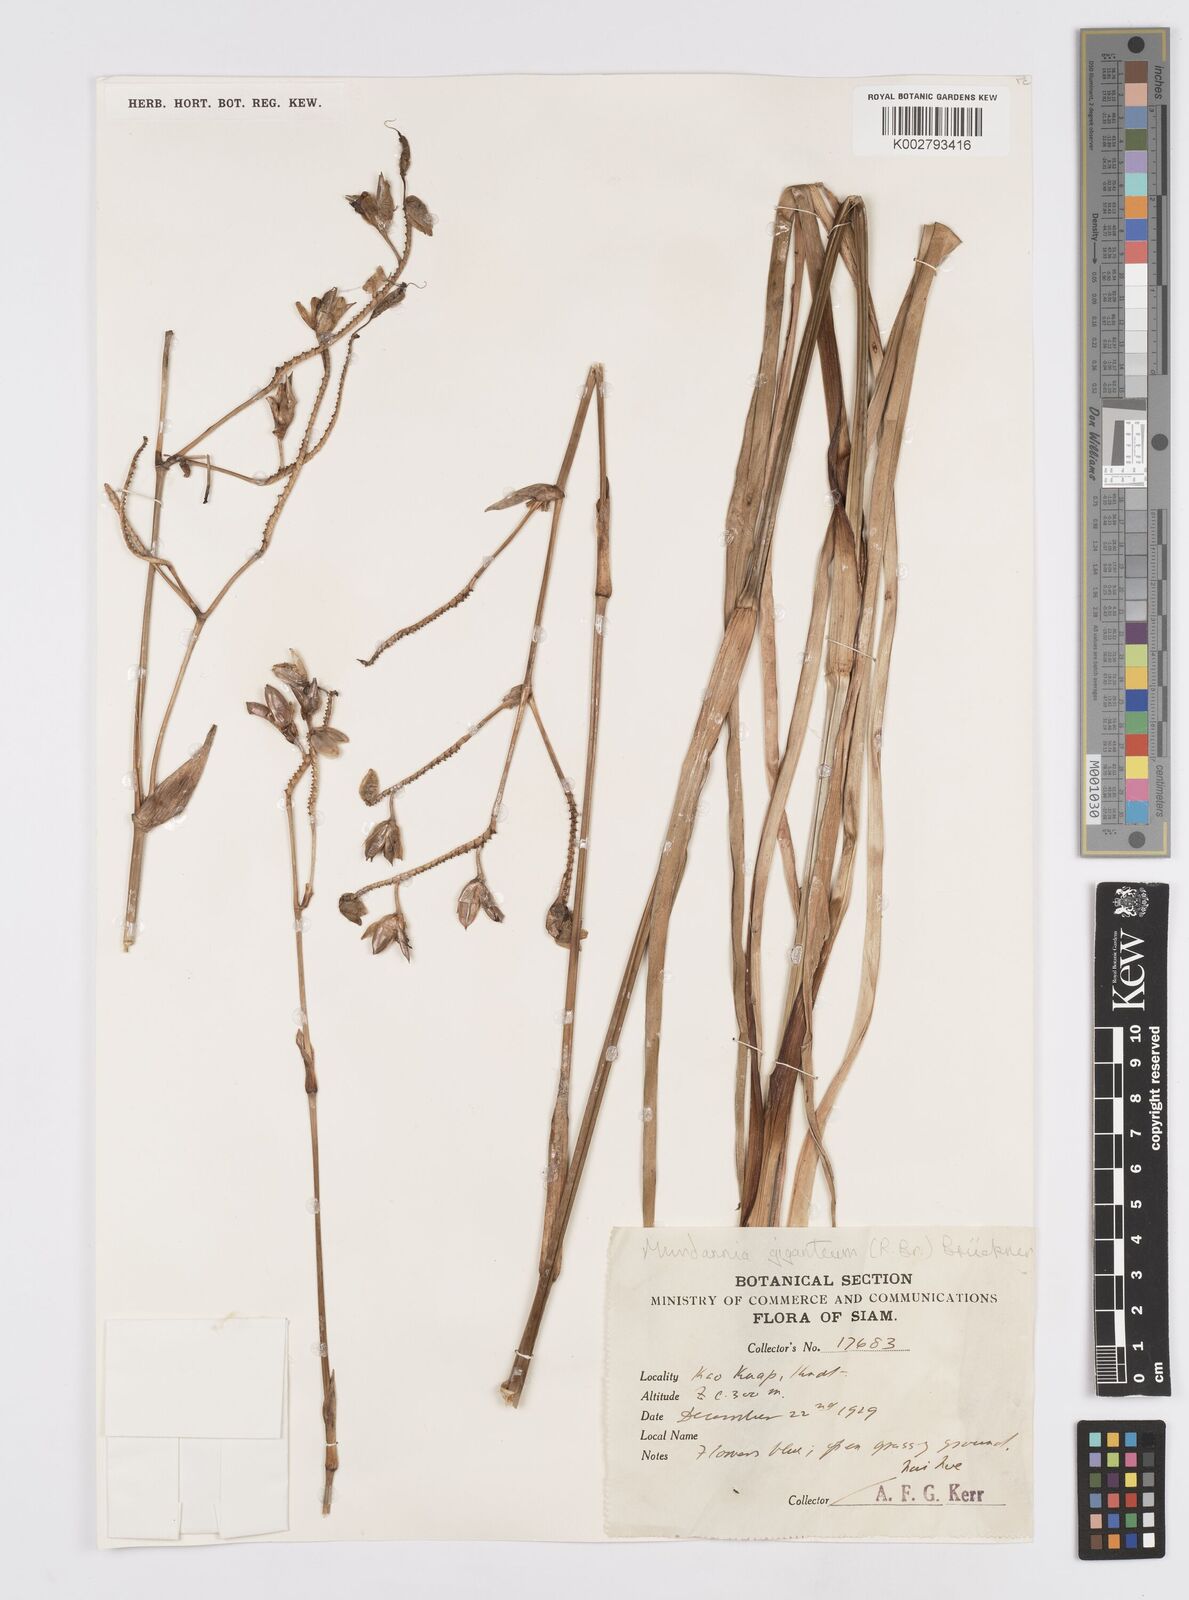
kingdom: Plantae
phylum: Tracheophyta
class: Liliopsida
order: Commelinales
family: Commelinaceae
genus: Murdannia
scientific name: Murdannia gigantea
